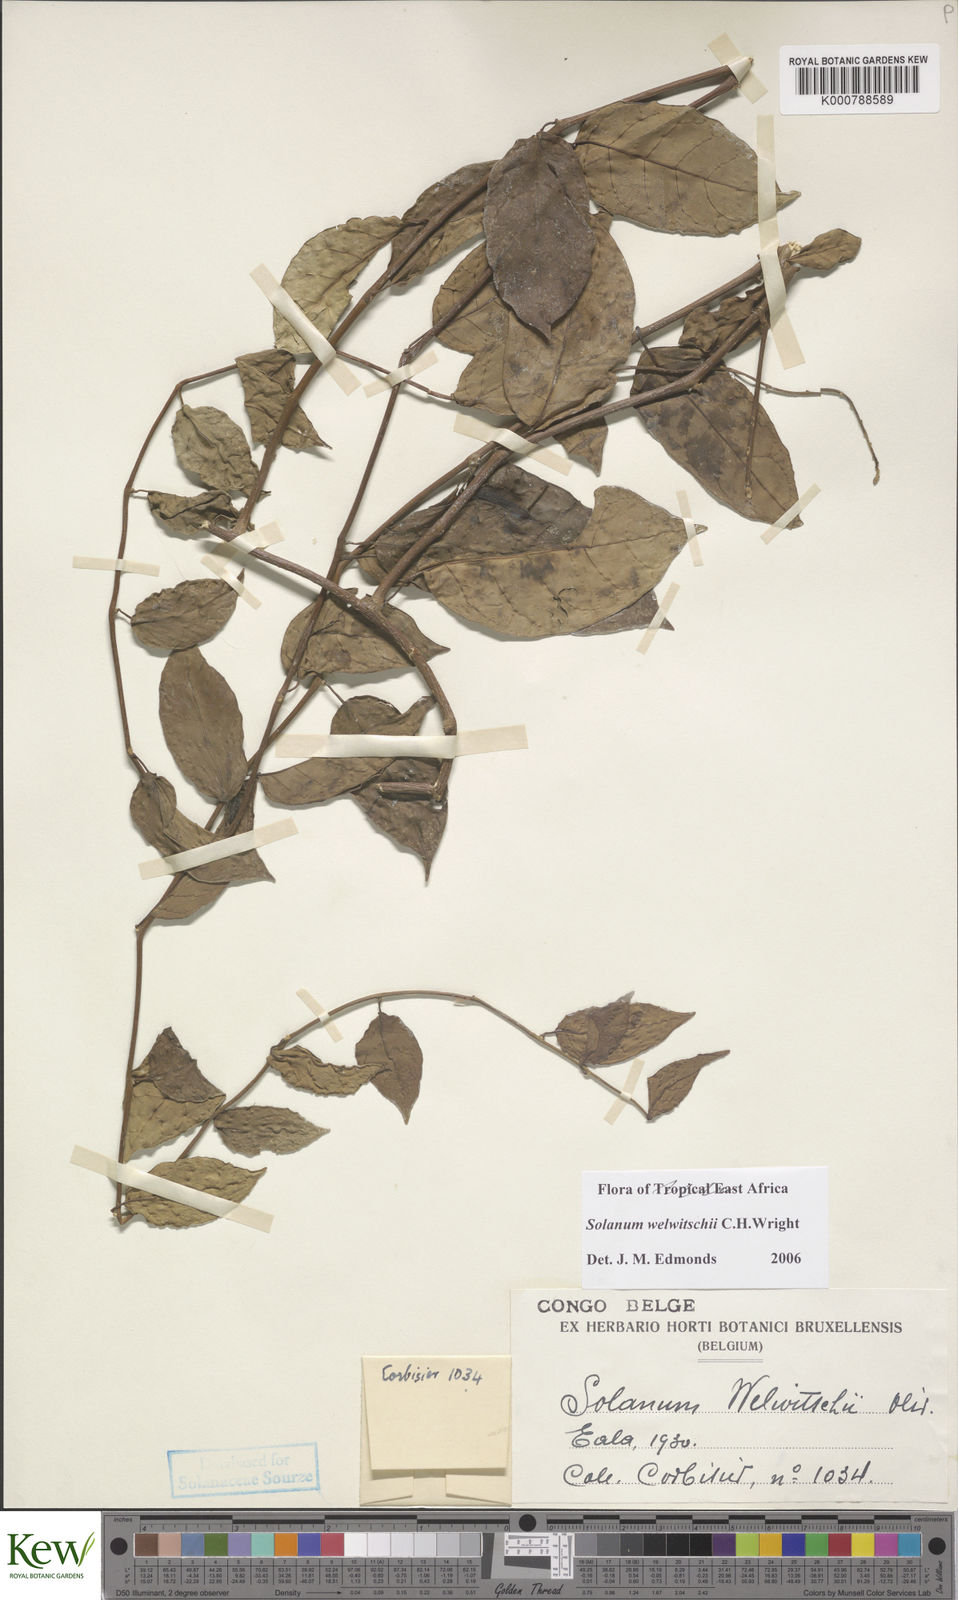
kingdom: Plantae
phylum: Tracheophyta
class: Magnoliopsida
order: Solanales
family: Solanaceae
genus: Solanum
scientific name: Solanum terminale
